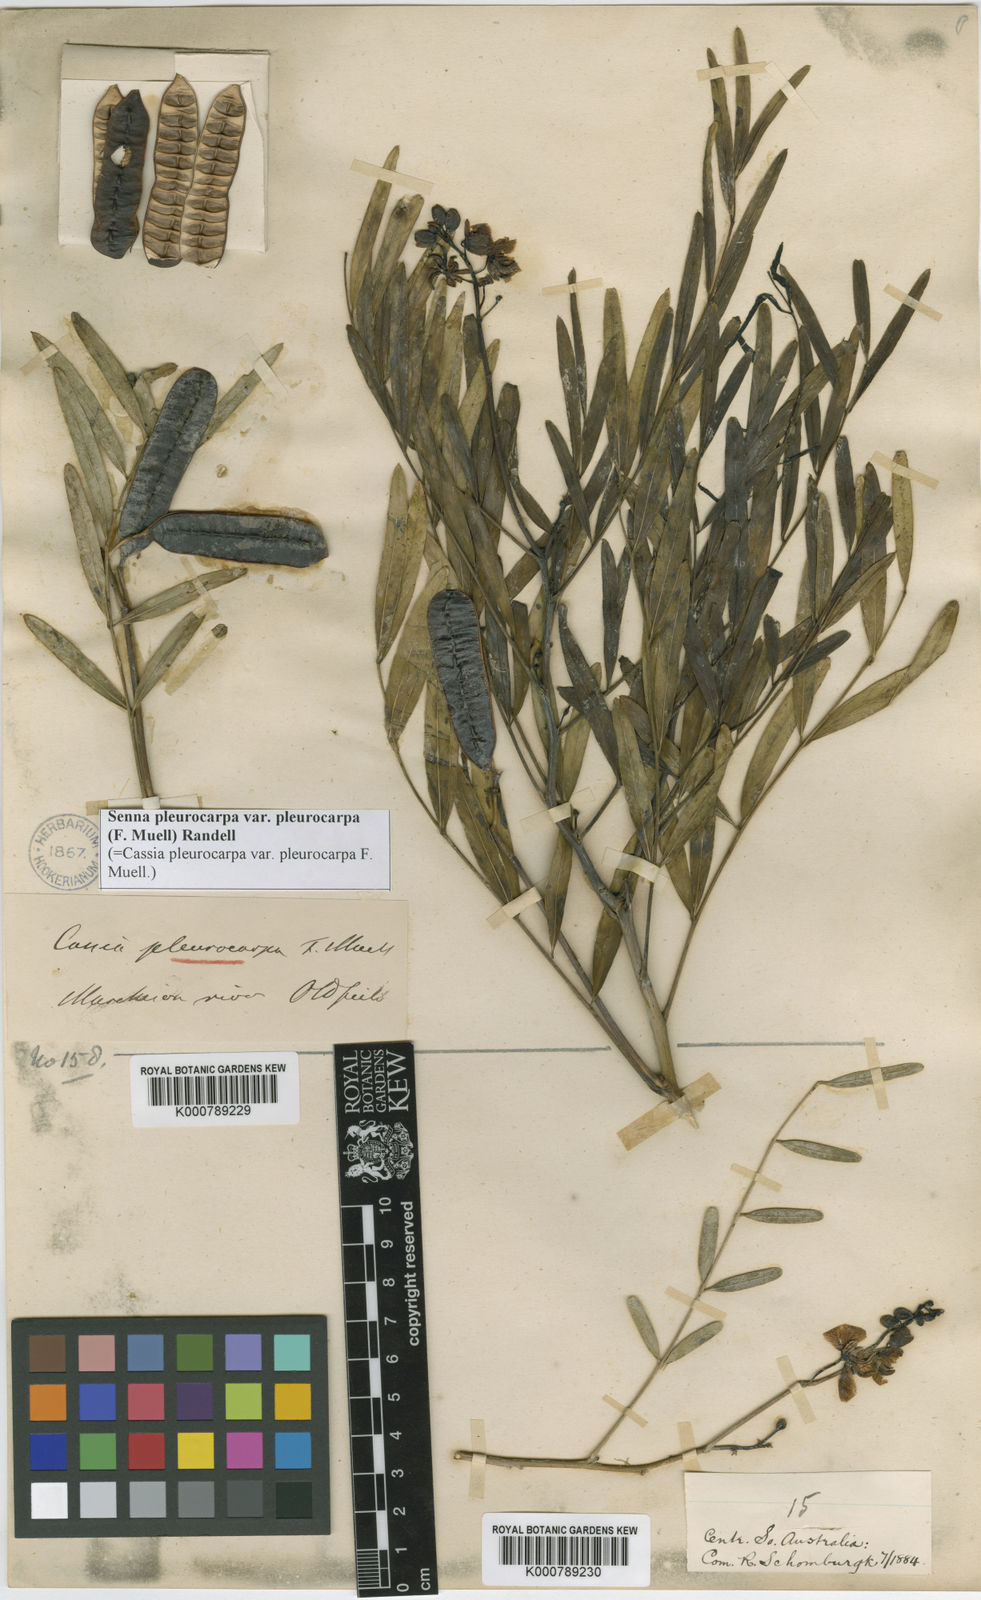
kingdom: Plantae
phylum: Tracheophyta
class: Magnoliopsida
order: Fabales
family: Fabaceae
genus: Senna
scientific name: Senna pleurocarpa
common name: Stripe-pod cassia
